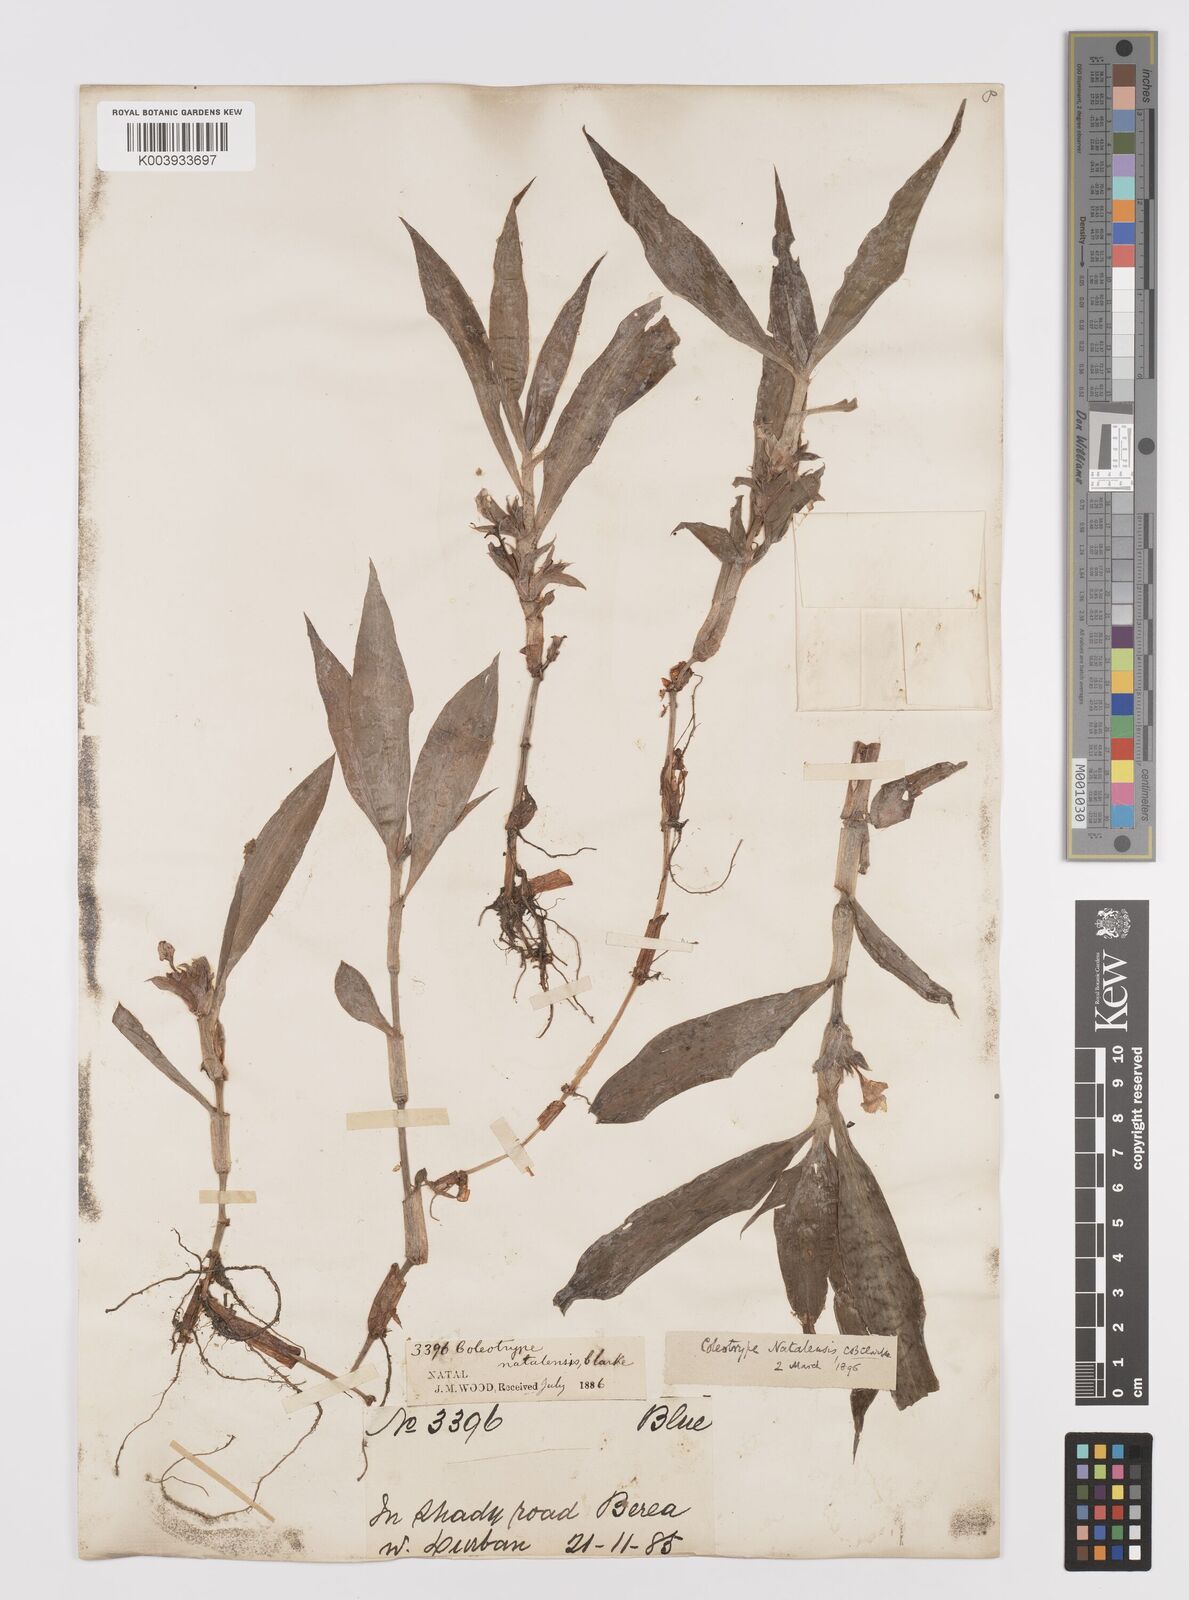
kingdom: Plantae
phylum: Tracheophyta
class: Liliopsida
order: Commelinales
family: Commelinaceae
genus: Coleotrype
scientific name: Coleotrype natalensis
